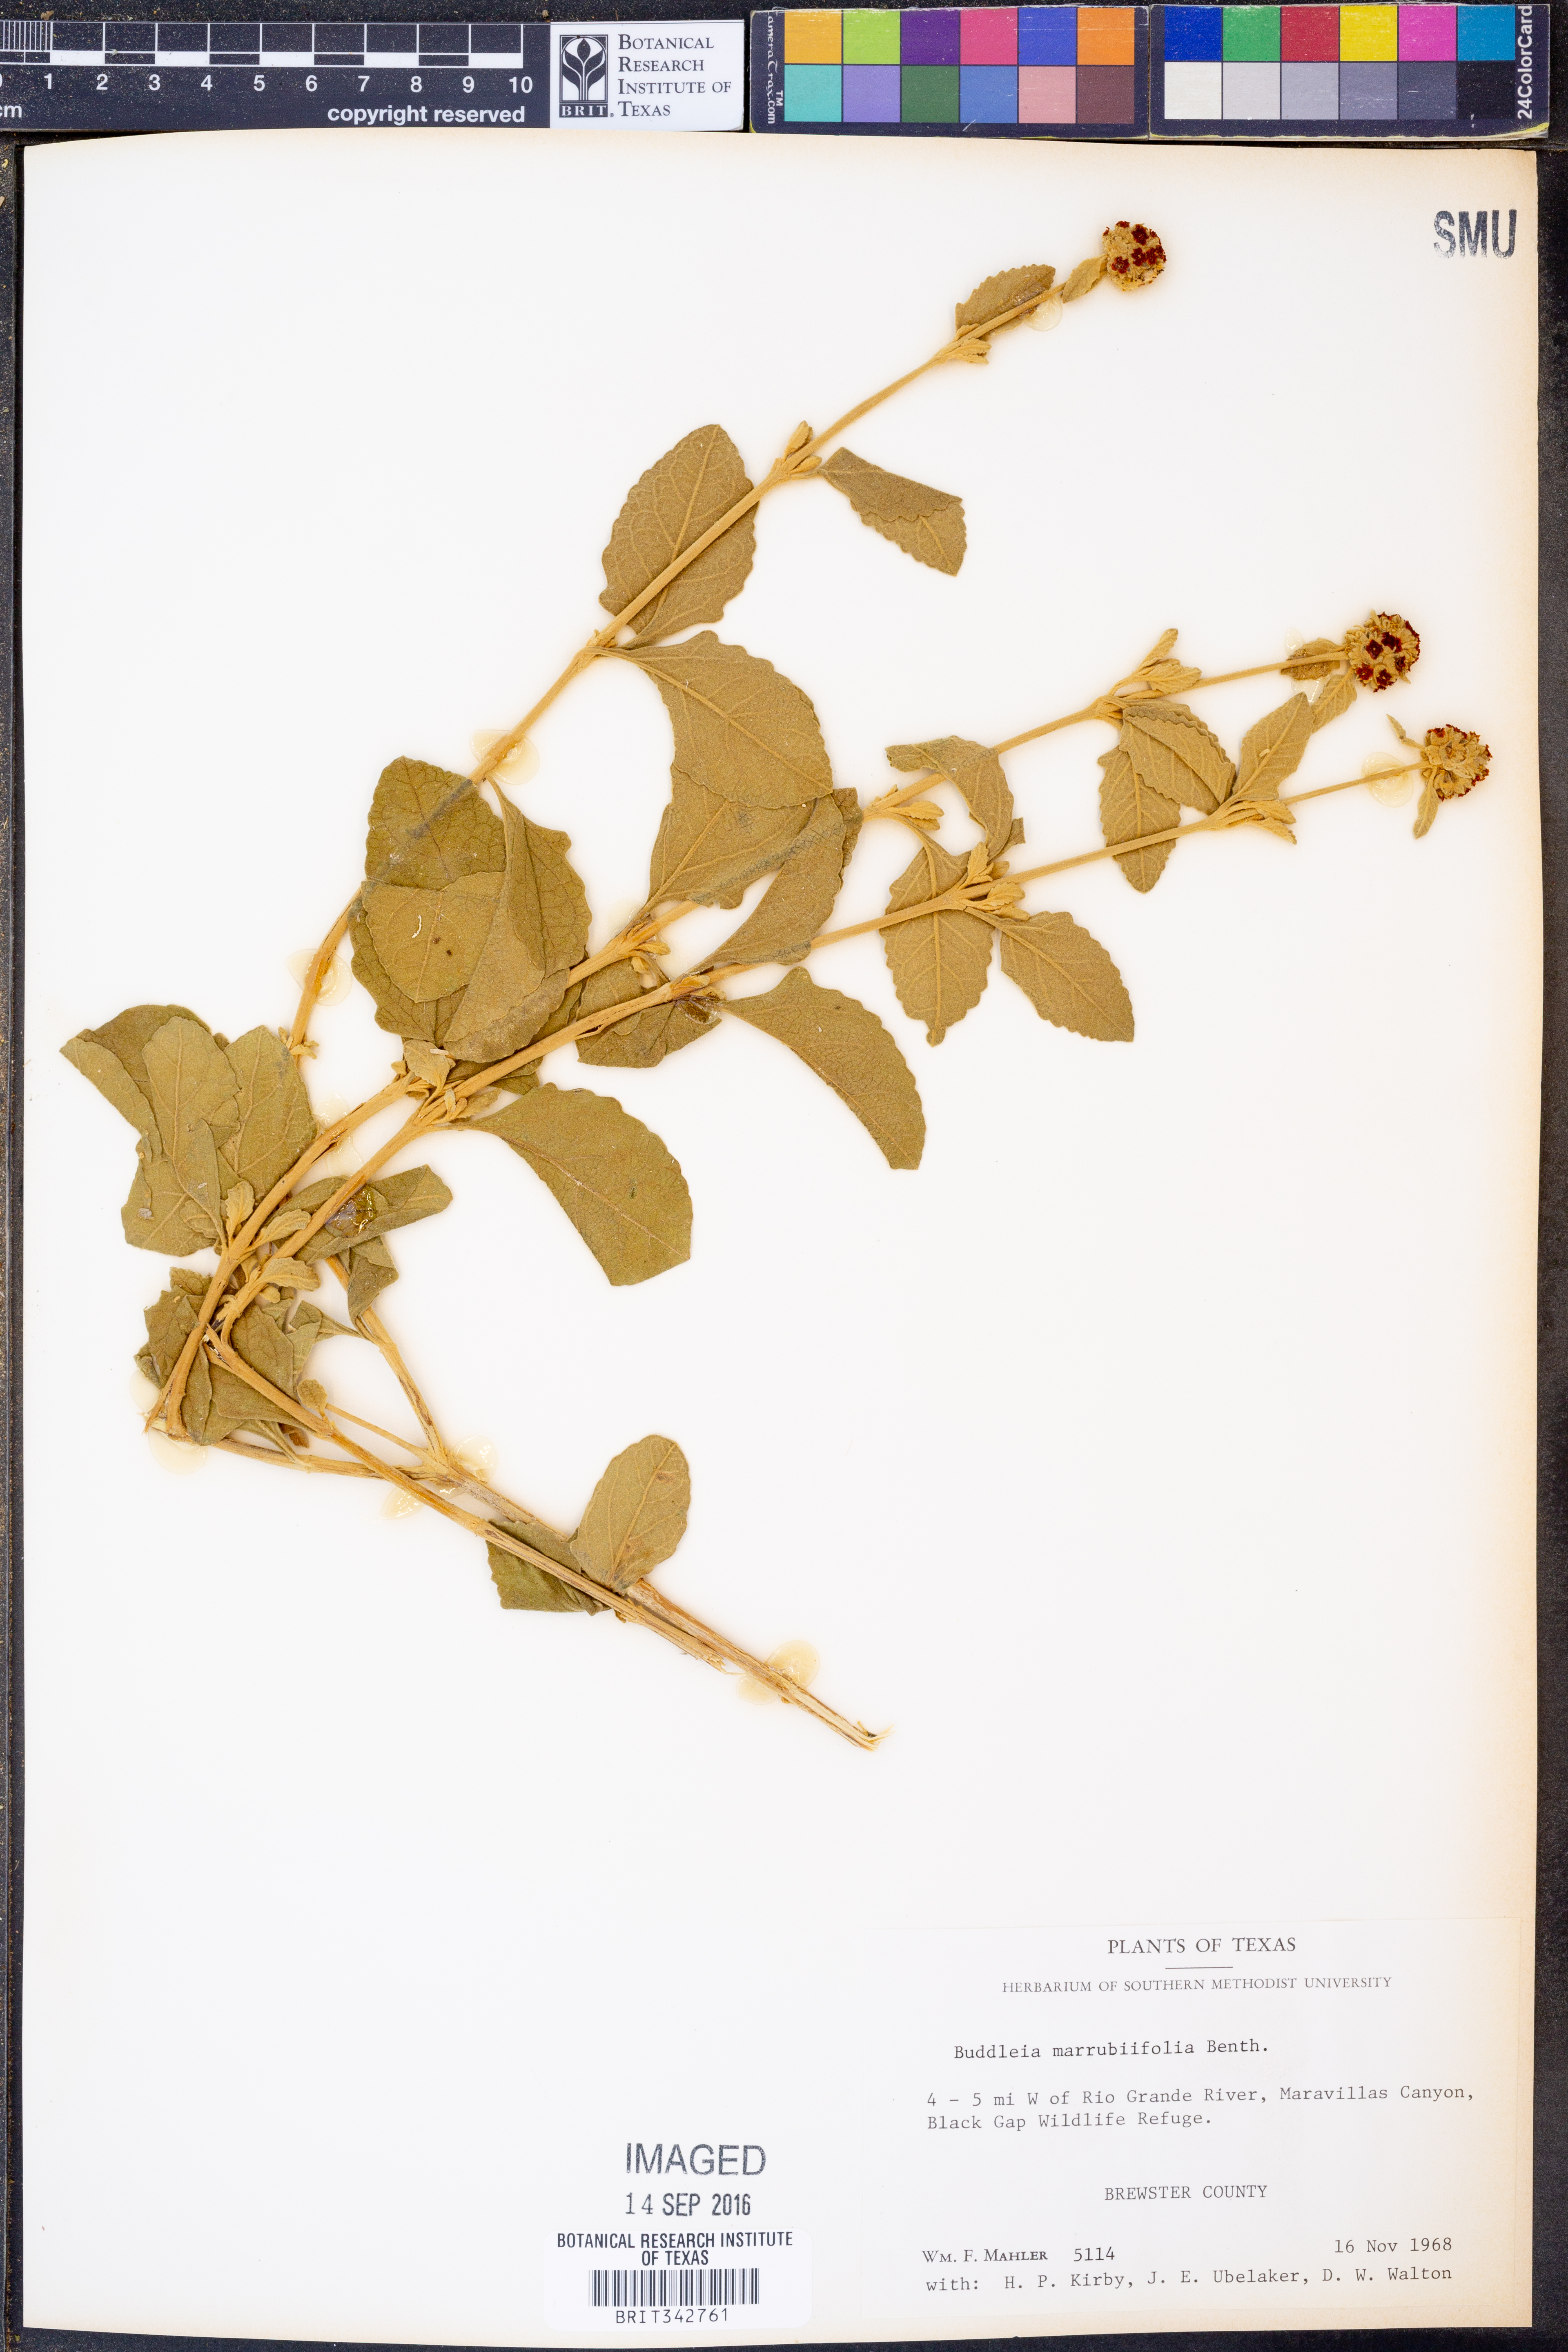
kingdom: Plantae
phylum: Tracheophyta
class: Magnoliopsida
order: Lamiales
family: Scrophulariaceae
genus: Buddleja
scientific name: Buddleja marrubiifolia
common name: Woolly butterfly-bush
